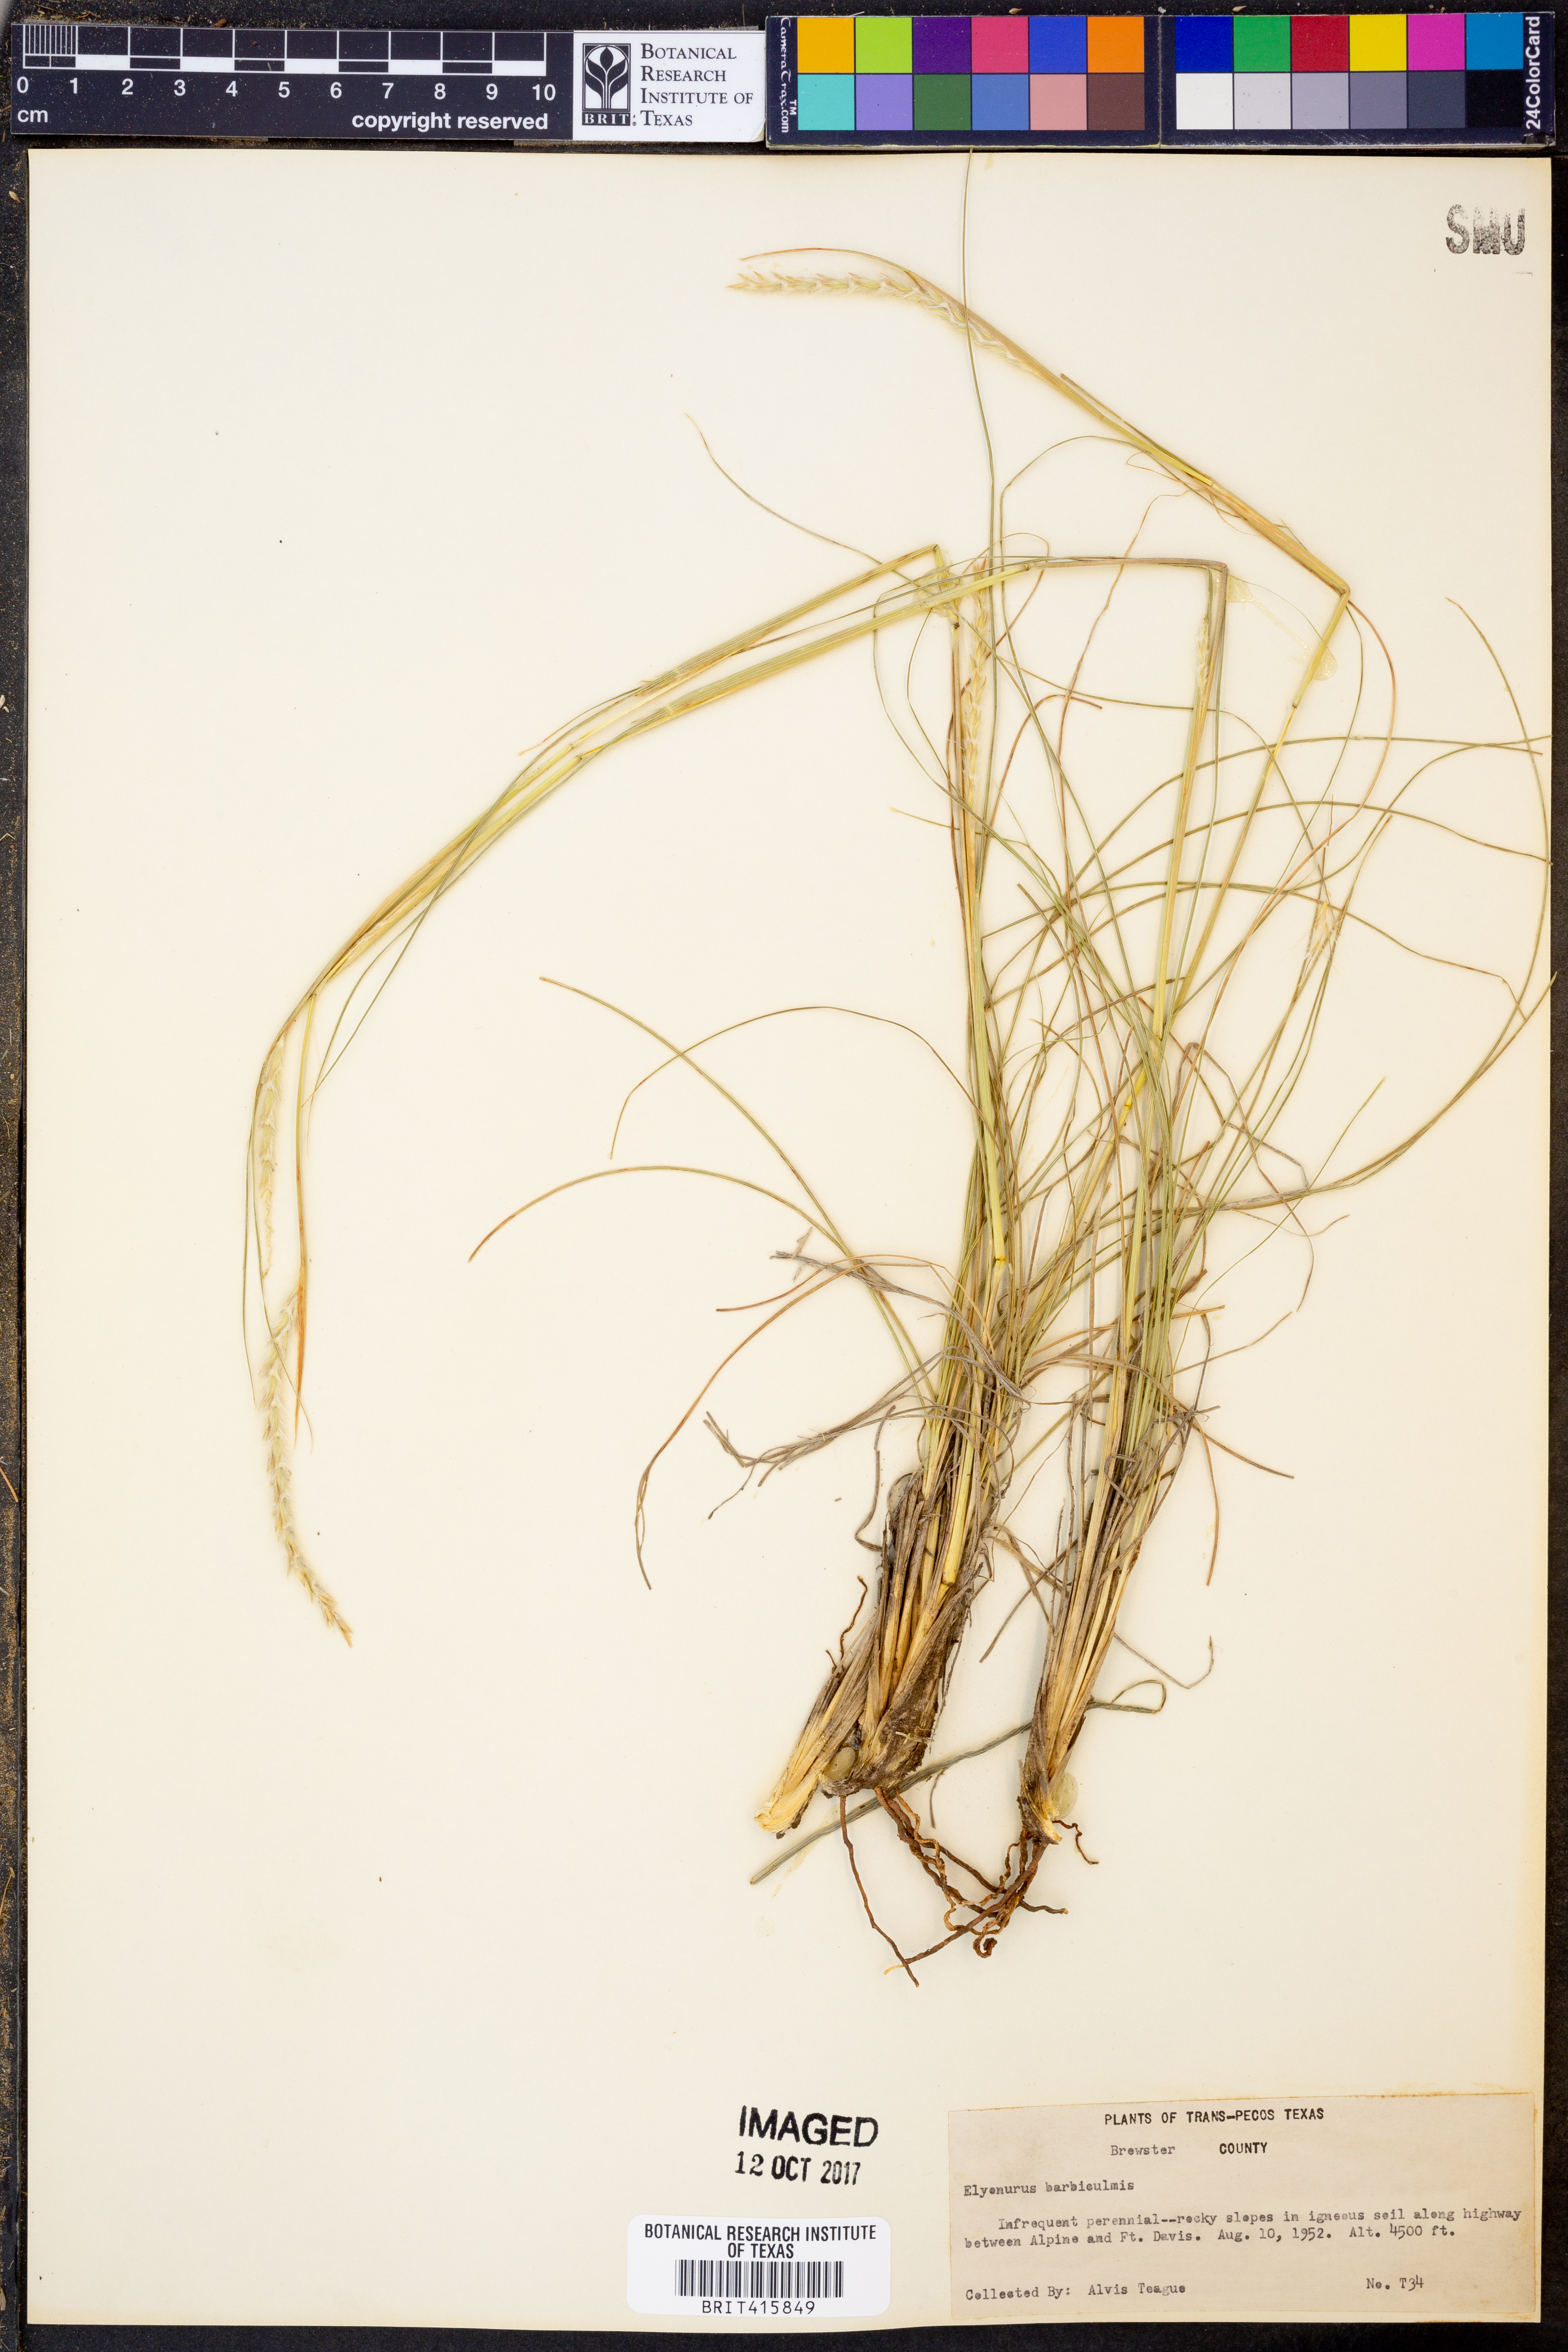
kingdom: Plantae
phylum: Tracheophyta
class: Liliopsida
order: Poales
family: Poaceae
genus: Elionurus
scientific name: Elionurus barbiculmis
